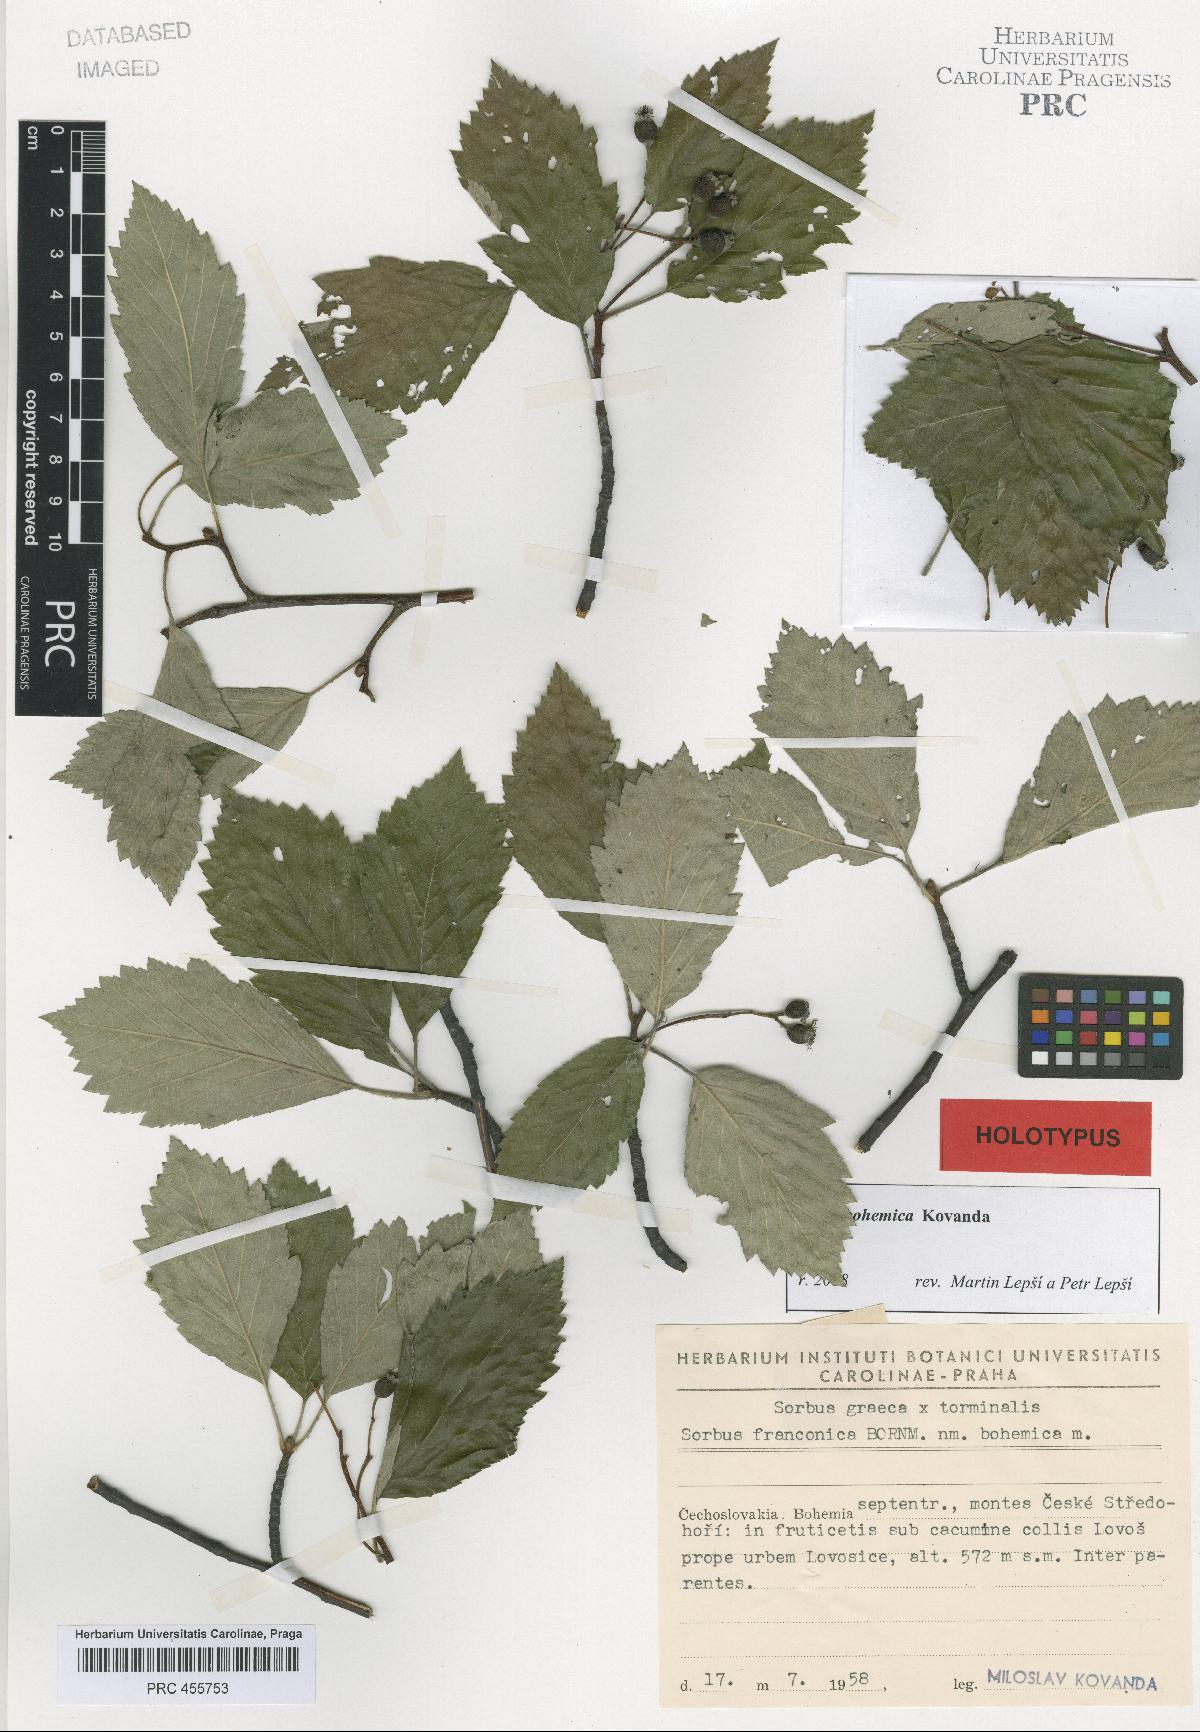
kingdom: Plantae
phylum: Tracheophyta
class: Magnoliopsida
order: Rosales
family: Rosaceae
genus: Karpatiosorbus
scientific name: Karpatiosorbus bohemica
